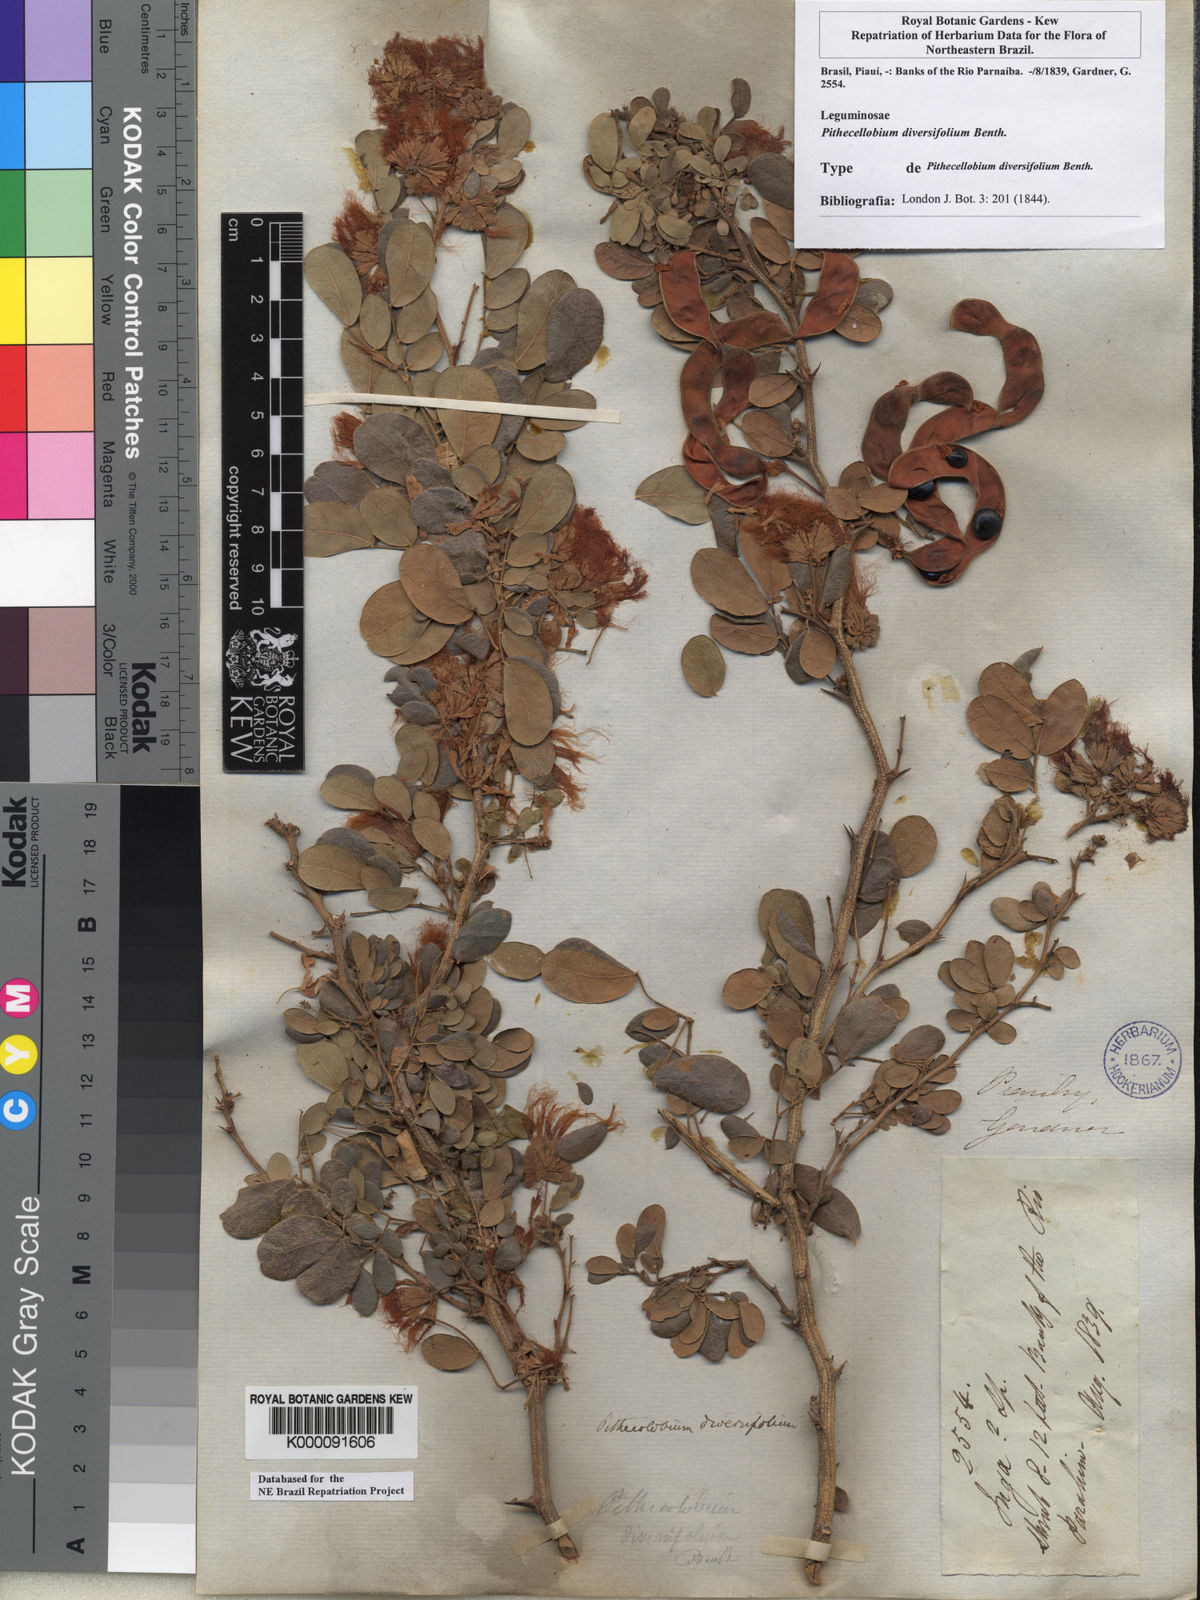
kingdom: Plantae
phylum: Tracheophyta
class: Magnoliopsida
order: Fabales
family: Fabaceae
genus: Pithecellobium
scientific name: Pithecellobium diversifolium
